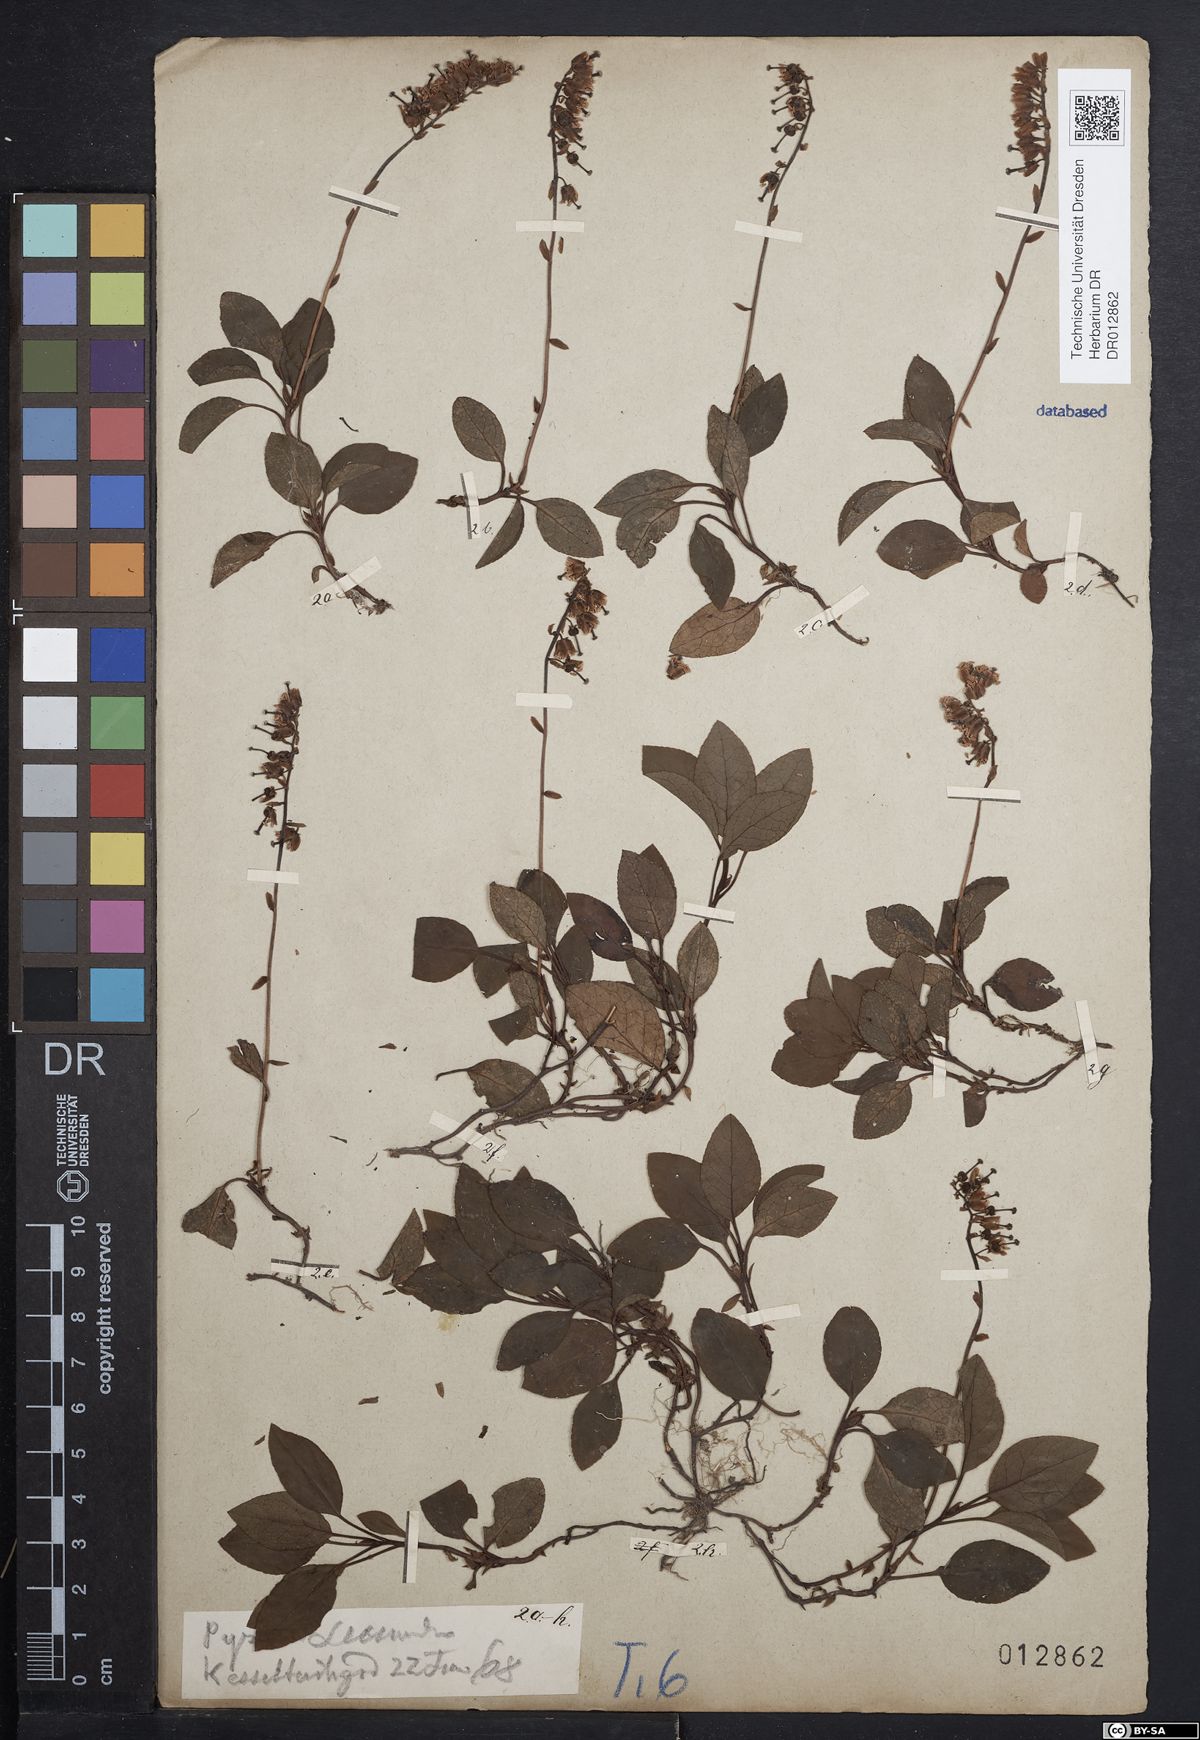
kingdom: Plantae
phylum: Tracheophyta
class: Magnoliopsida
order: Ericales
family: Ericaceae
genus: Orthilia
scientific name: Orthilia secunda
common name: One-sided orthilia
